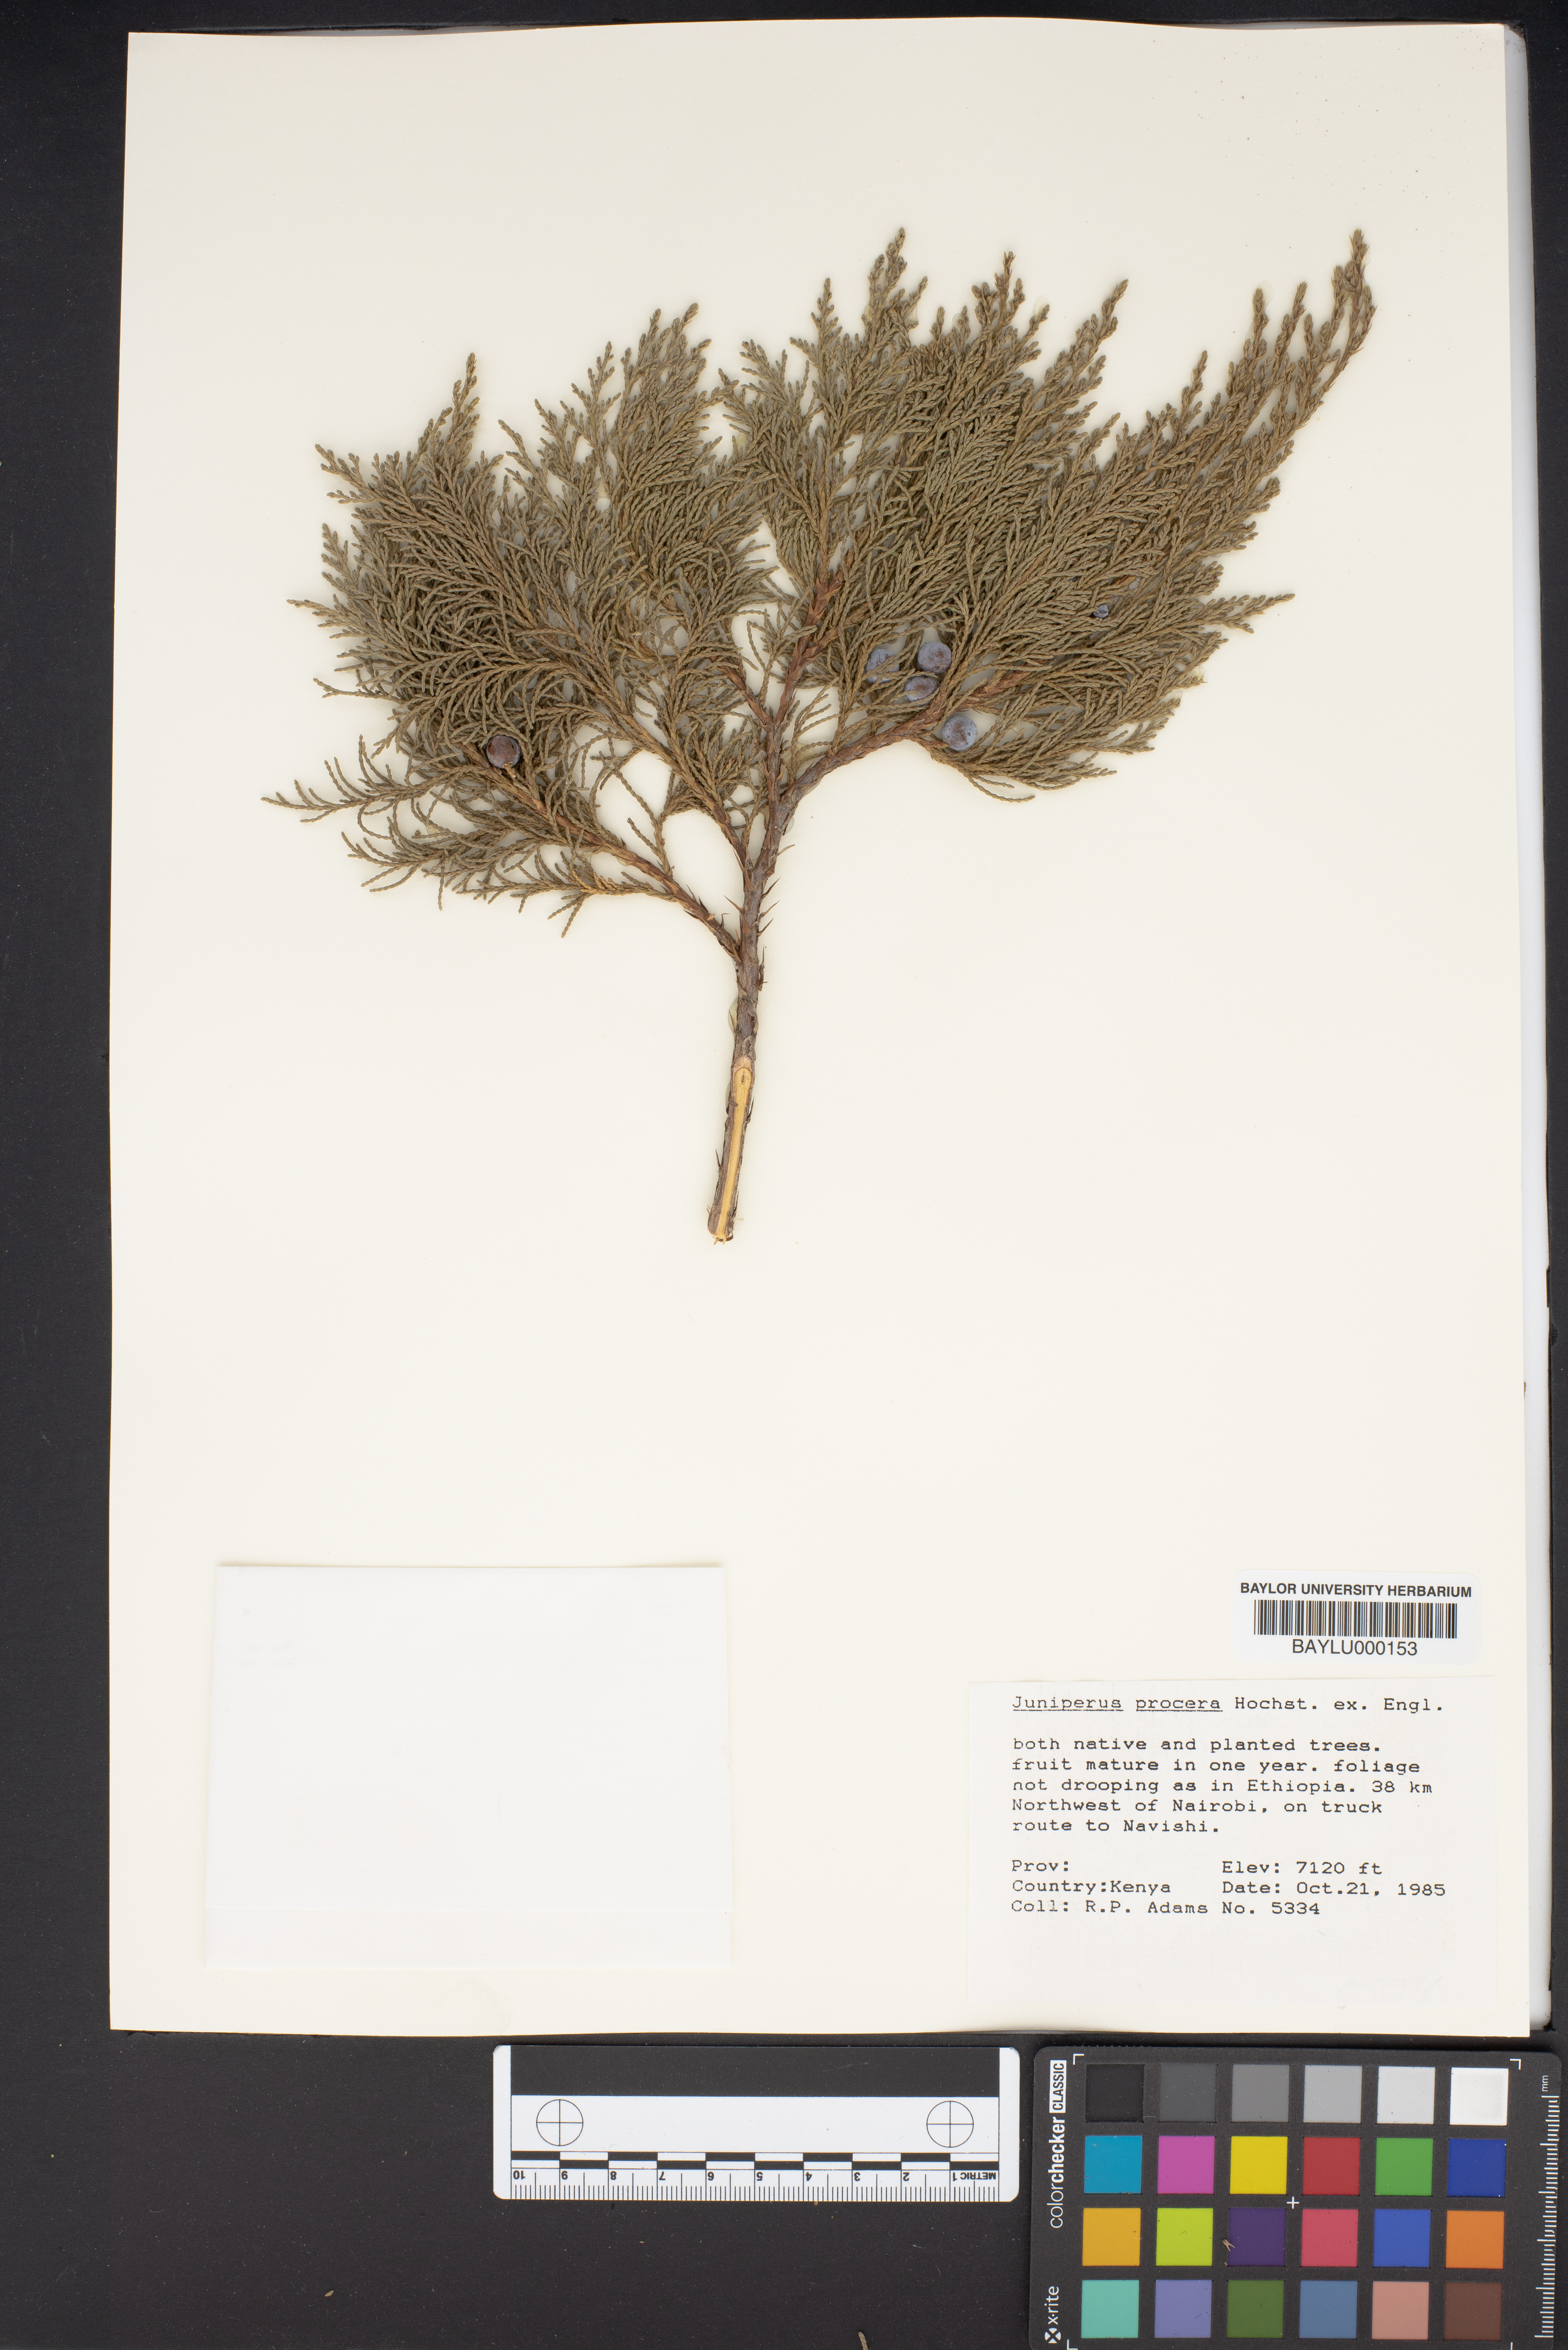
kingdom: Plantae
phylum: Tracheophyta
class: Pinopsida
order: Pinales
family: Cupressaceae
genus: Juniperus
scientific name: Juniperus procera
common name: African juniper
